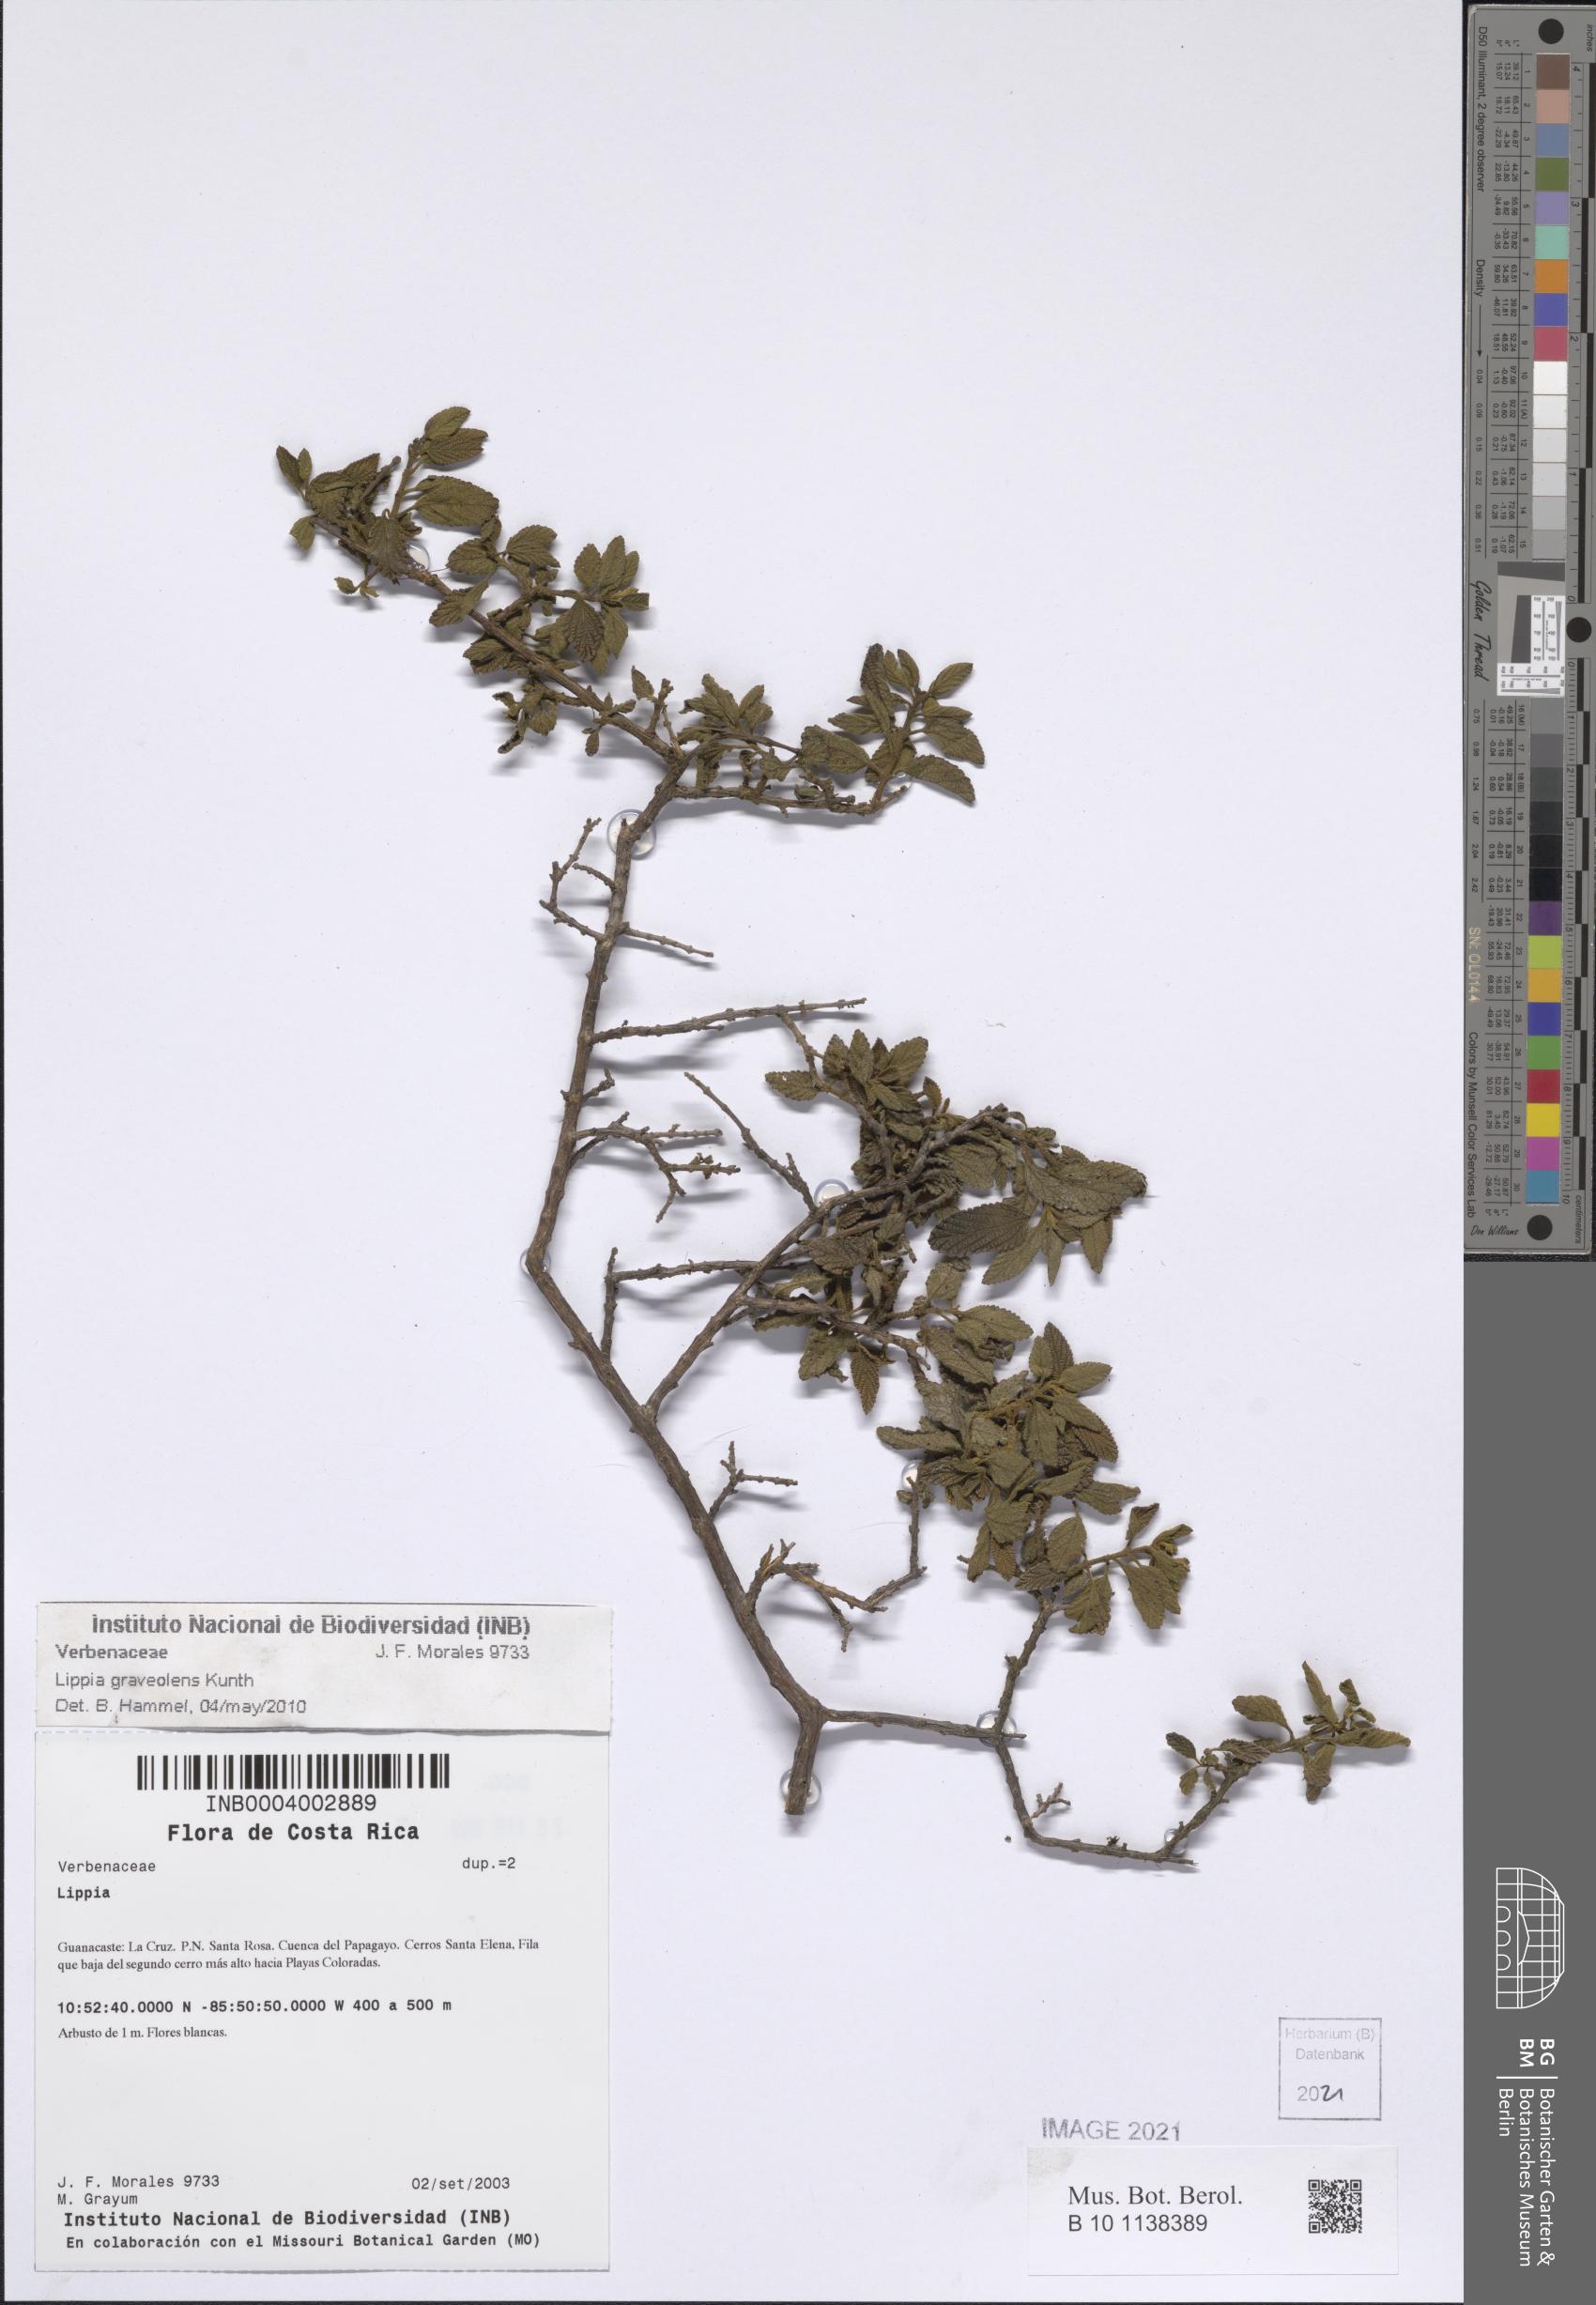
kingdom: Plantae
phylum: Tracheophyta
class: Magnoliopsida
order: Lamiales
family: Verbenaceae
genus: Lippia
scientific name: Lippia origanoides
